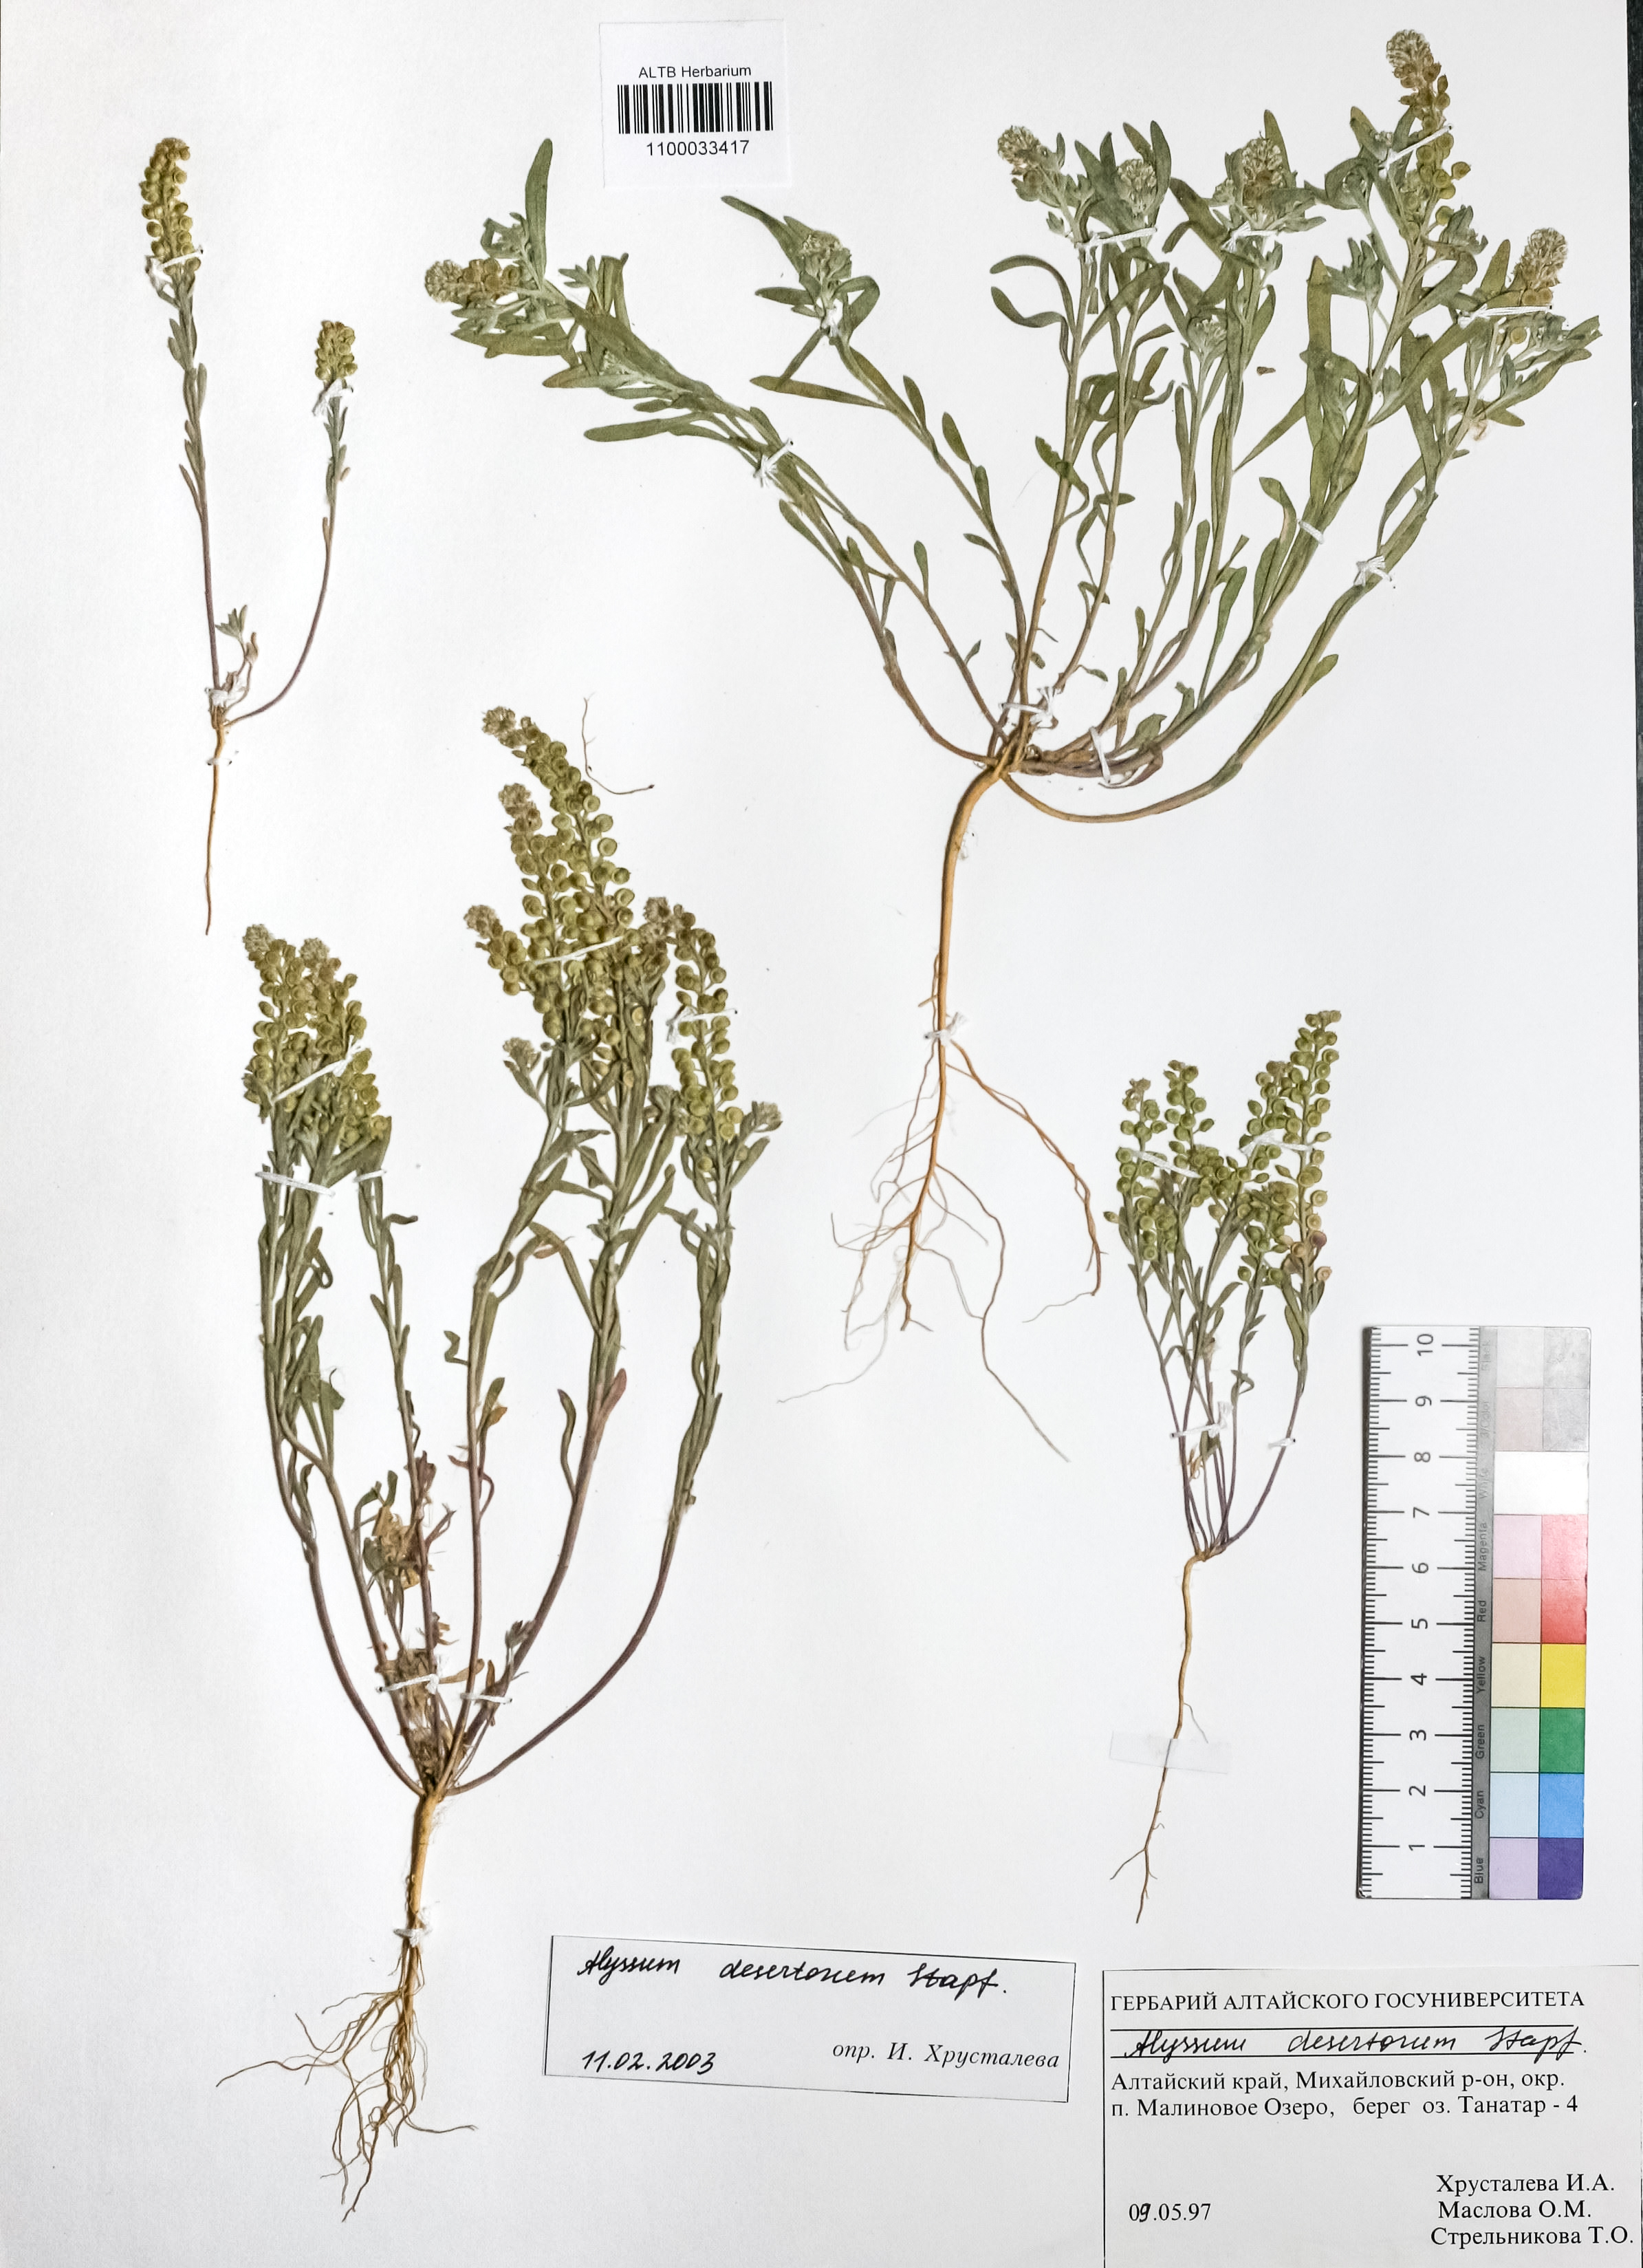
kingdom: Plantae
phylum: Tracheophyta
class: Magnoliopsida
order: Brassicales
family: Brassicaceae
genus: Alyssum
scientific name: Alyssum turkestanicum
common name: Desert alyssum
